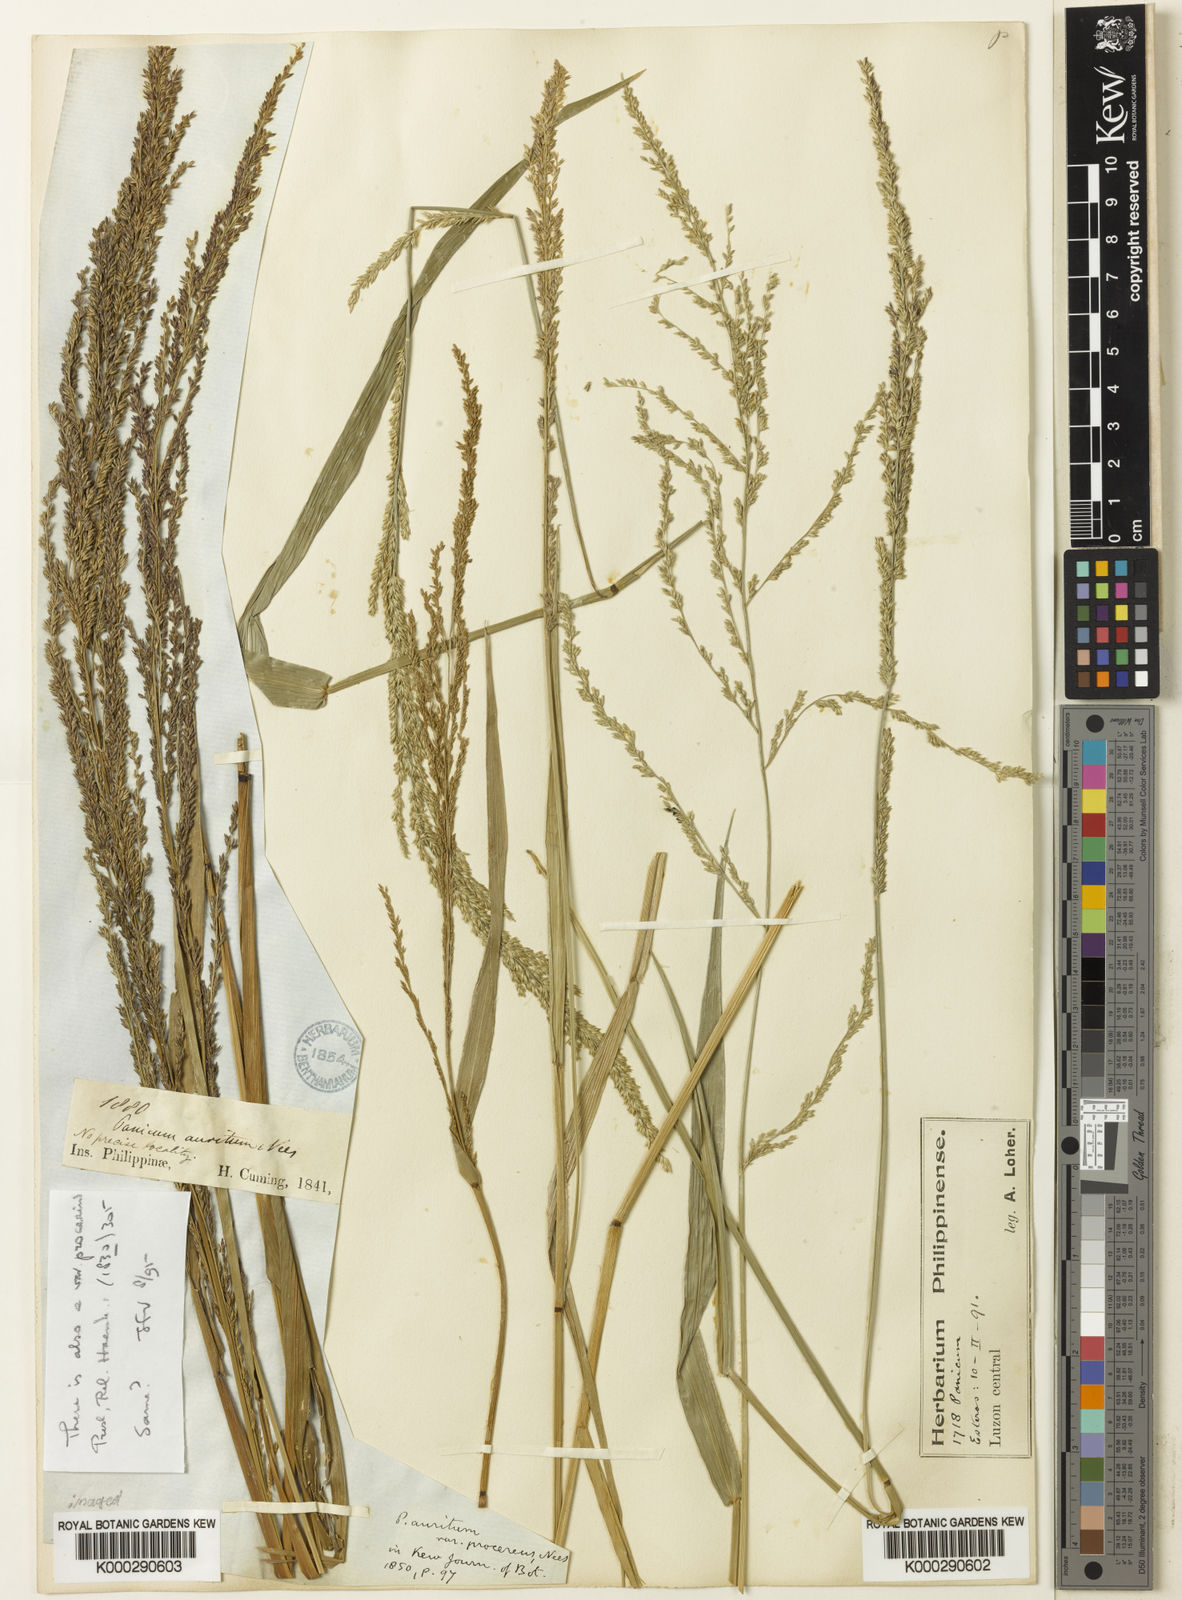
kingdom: Plantae
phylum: Tracheophyta
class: Liliopsida
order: Poales
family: Poaceae
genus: Hymenachne
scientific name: Hymenachne aurita
